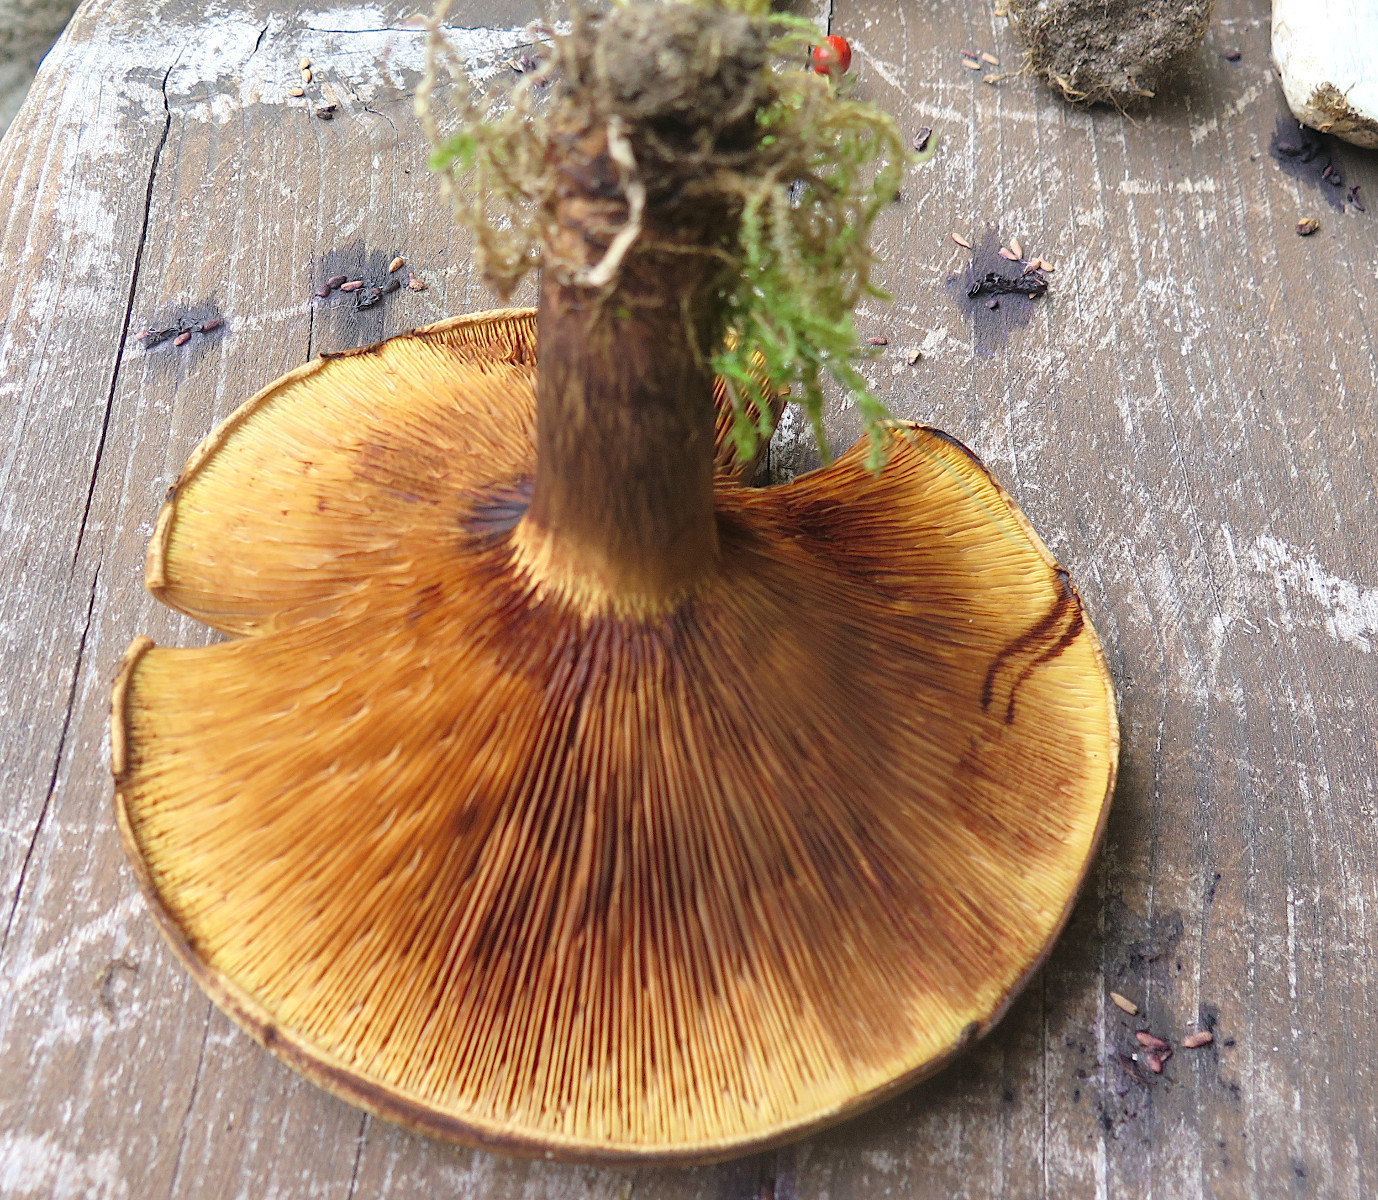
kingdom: Fungi
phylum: Basidiomycota
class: Agaricomycetes
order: Boletales
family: Paxillaceae
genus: Paxillus
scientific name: Paxillus involutus
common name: almindelig netbladhat
